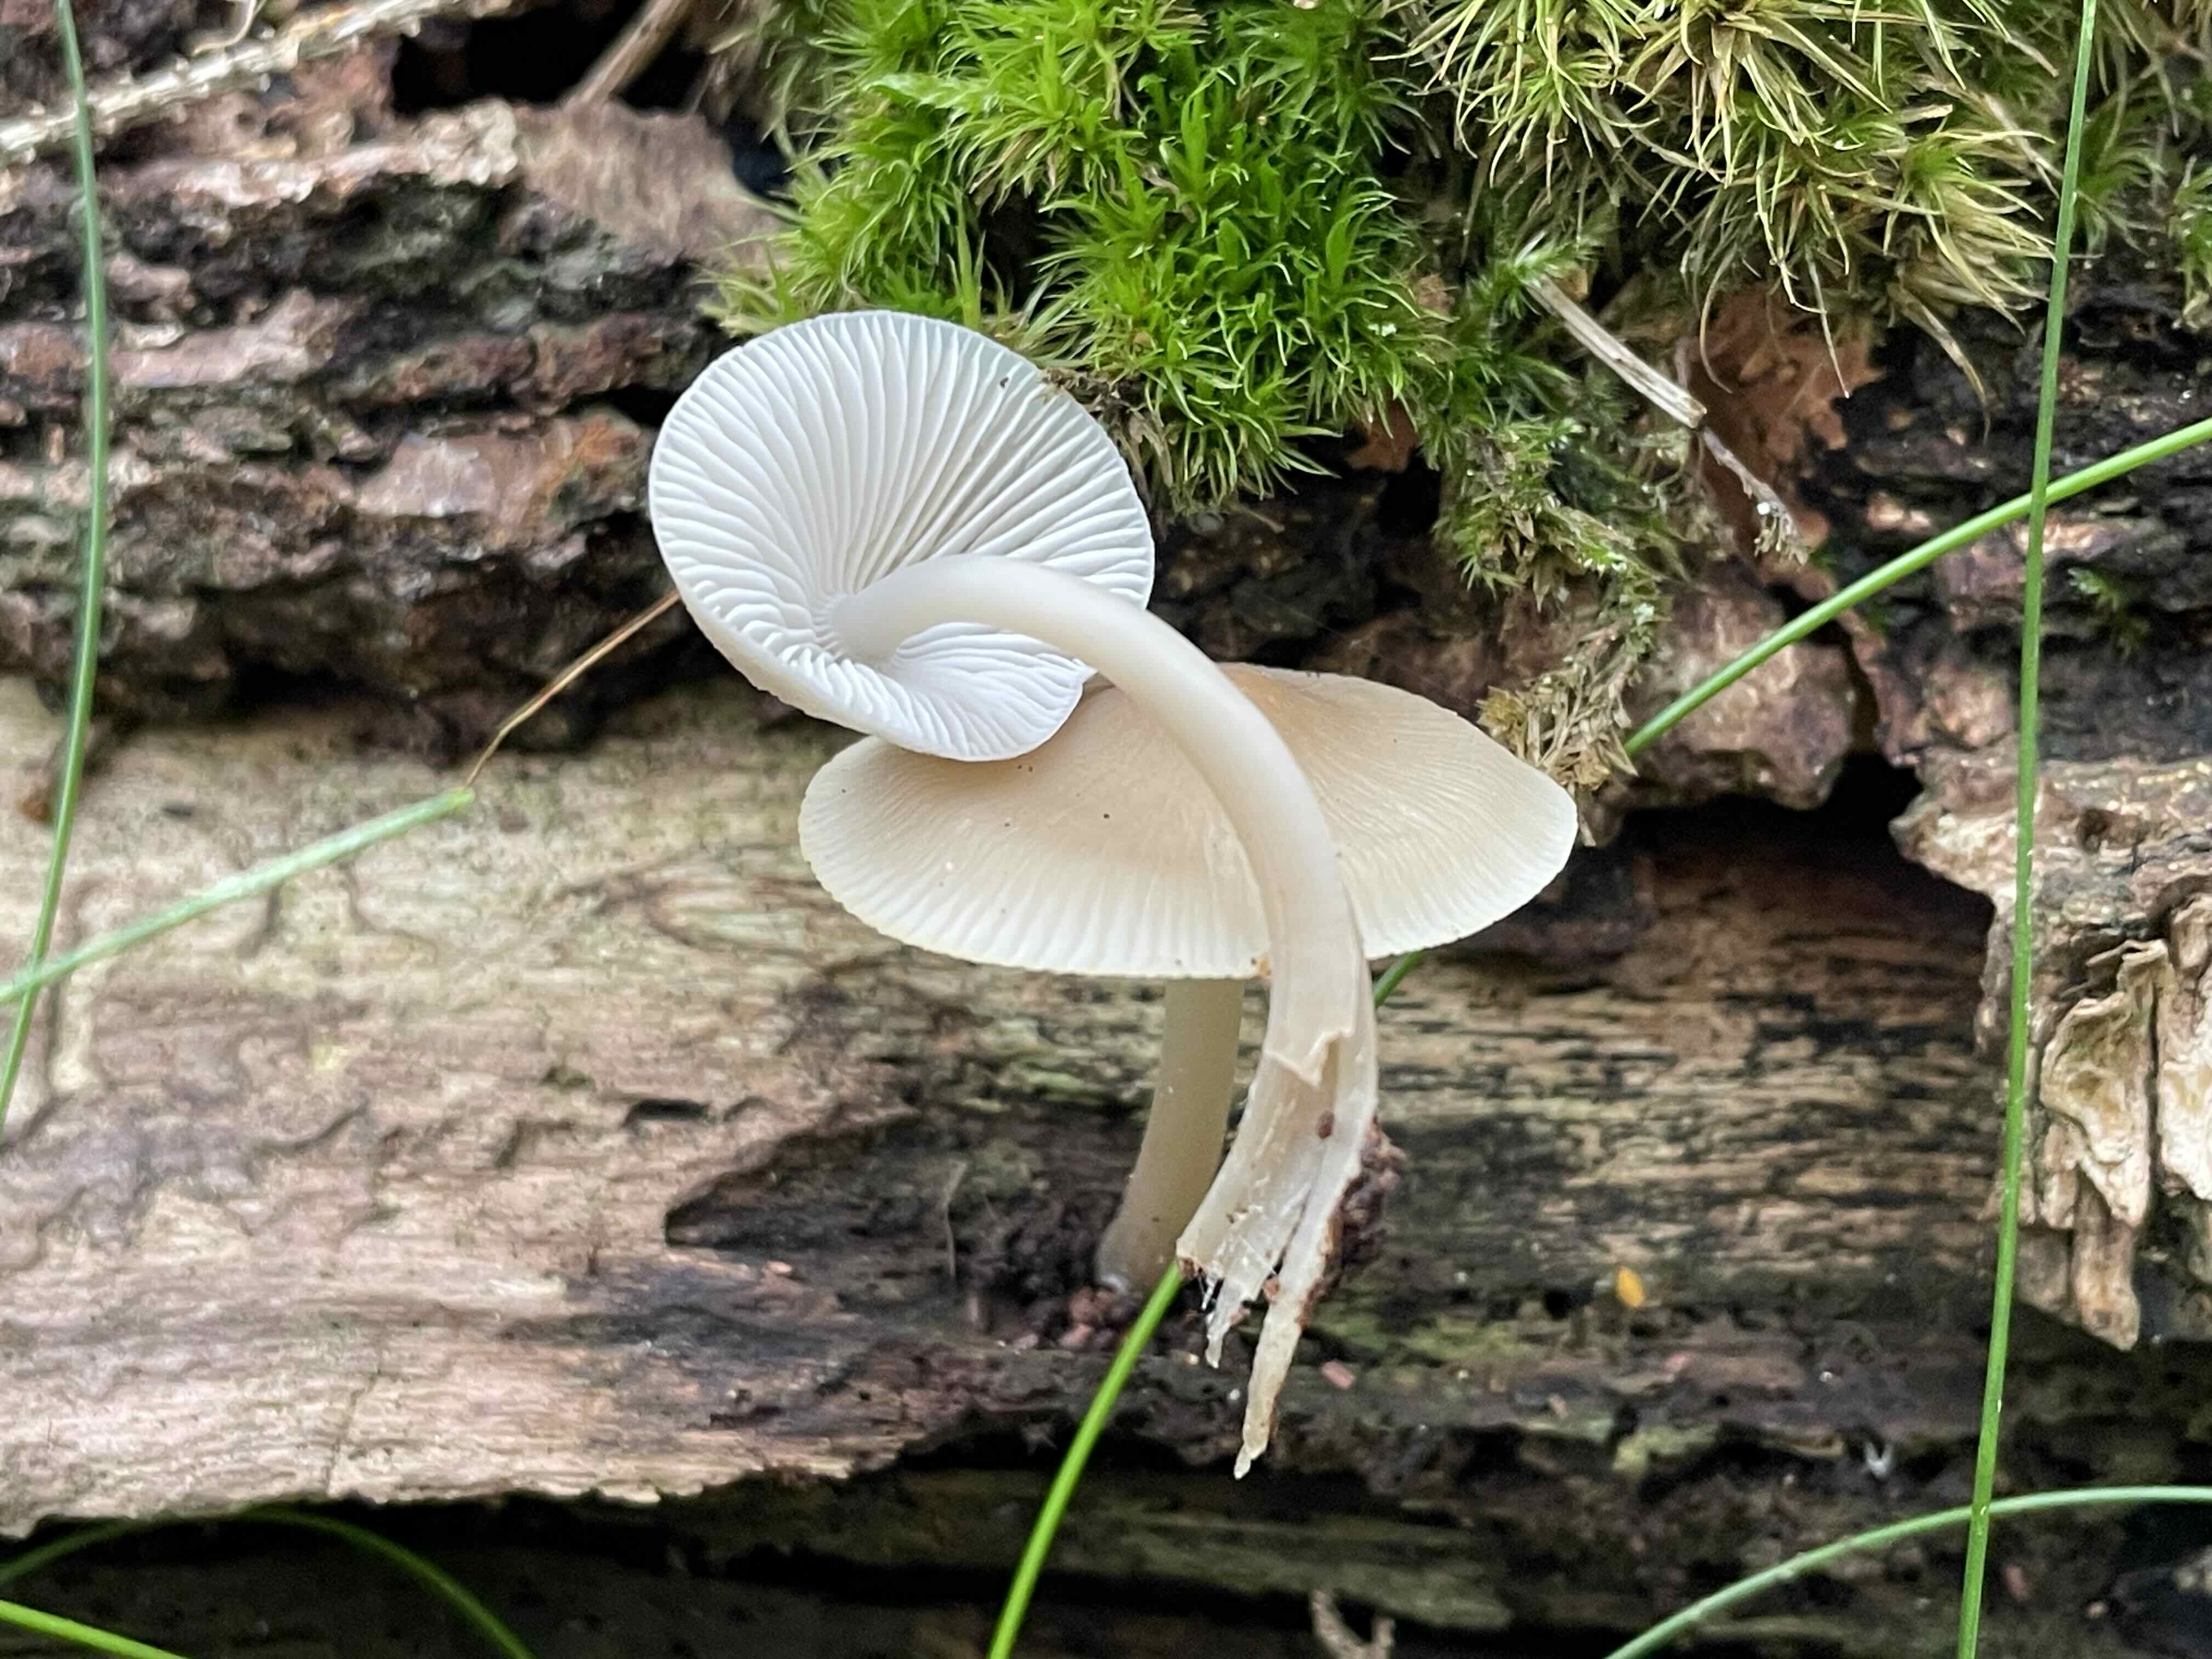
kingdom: Fungi
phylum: Basidiomycota
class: Agaricomycetes
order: Agaricales
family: Mycenaceae
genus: Mycena
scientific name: Mycena galericulata
